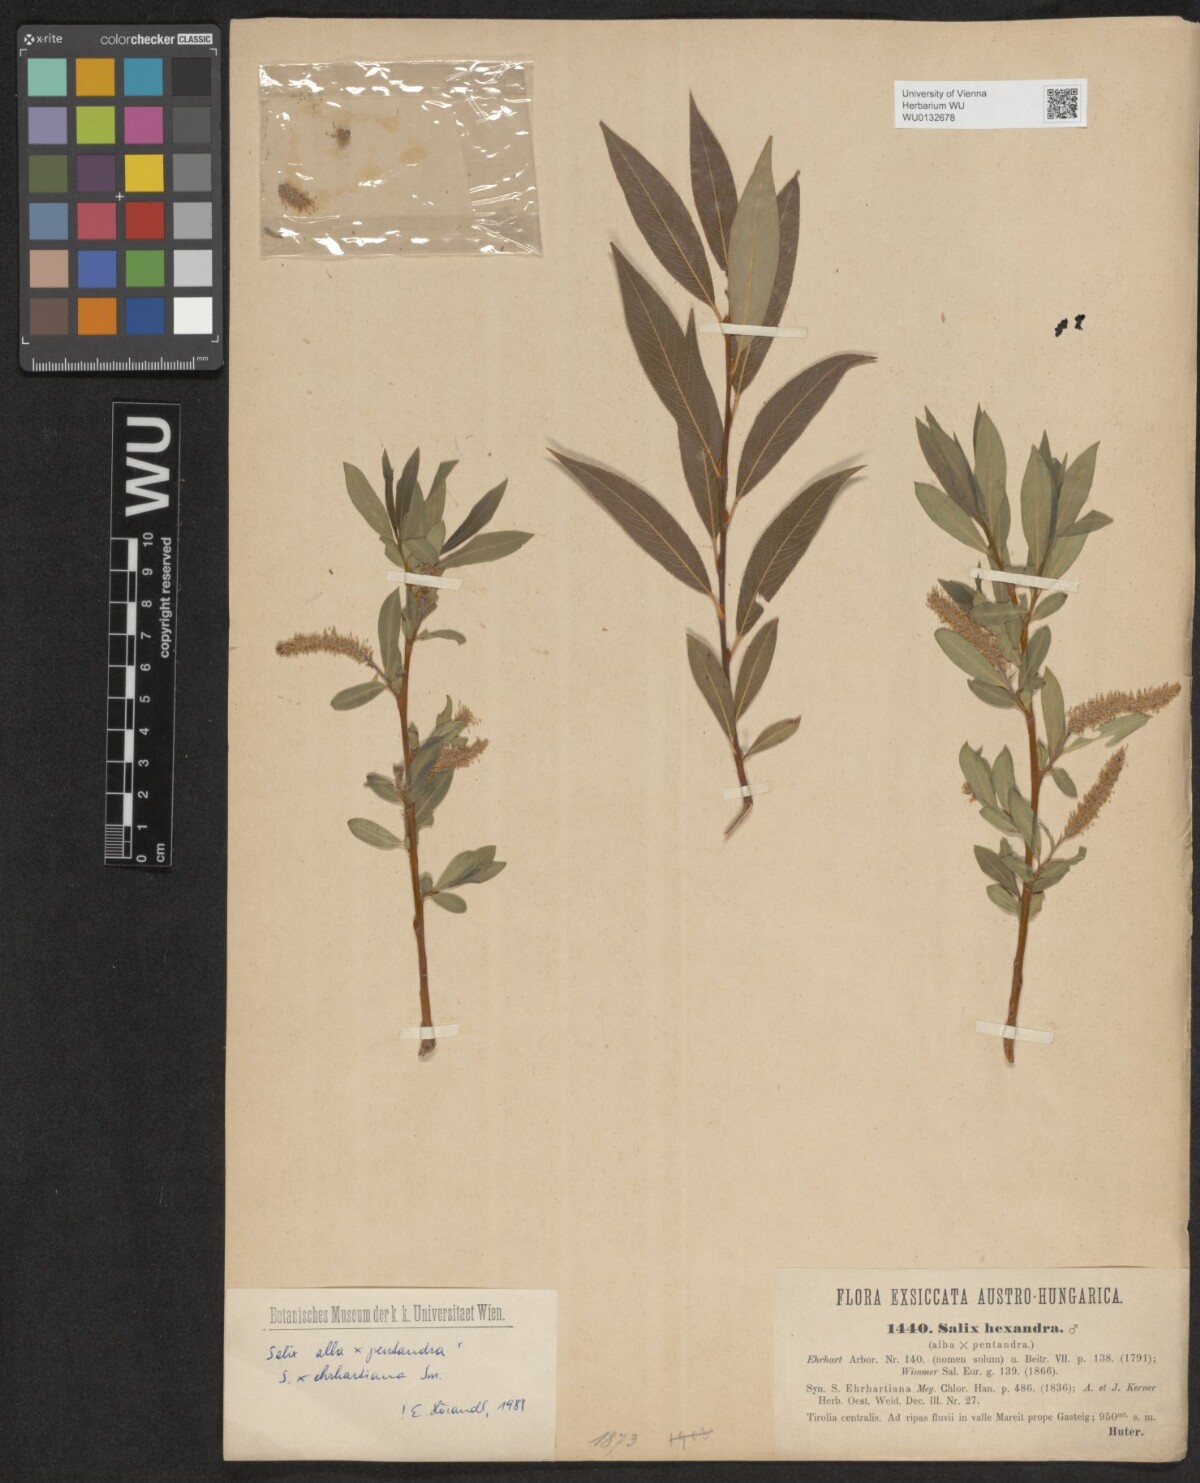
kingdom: Plantae
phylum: Tracheophyta
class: Magnoliopsida
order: Malpighiales
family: Salicaceae
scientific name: Salicaceae
